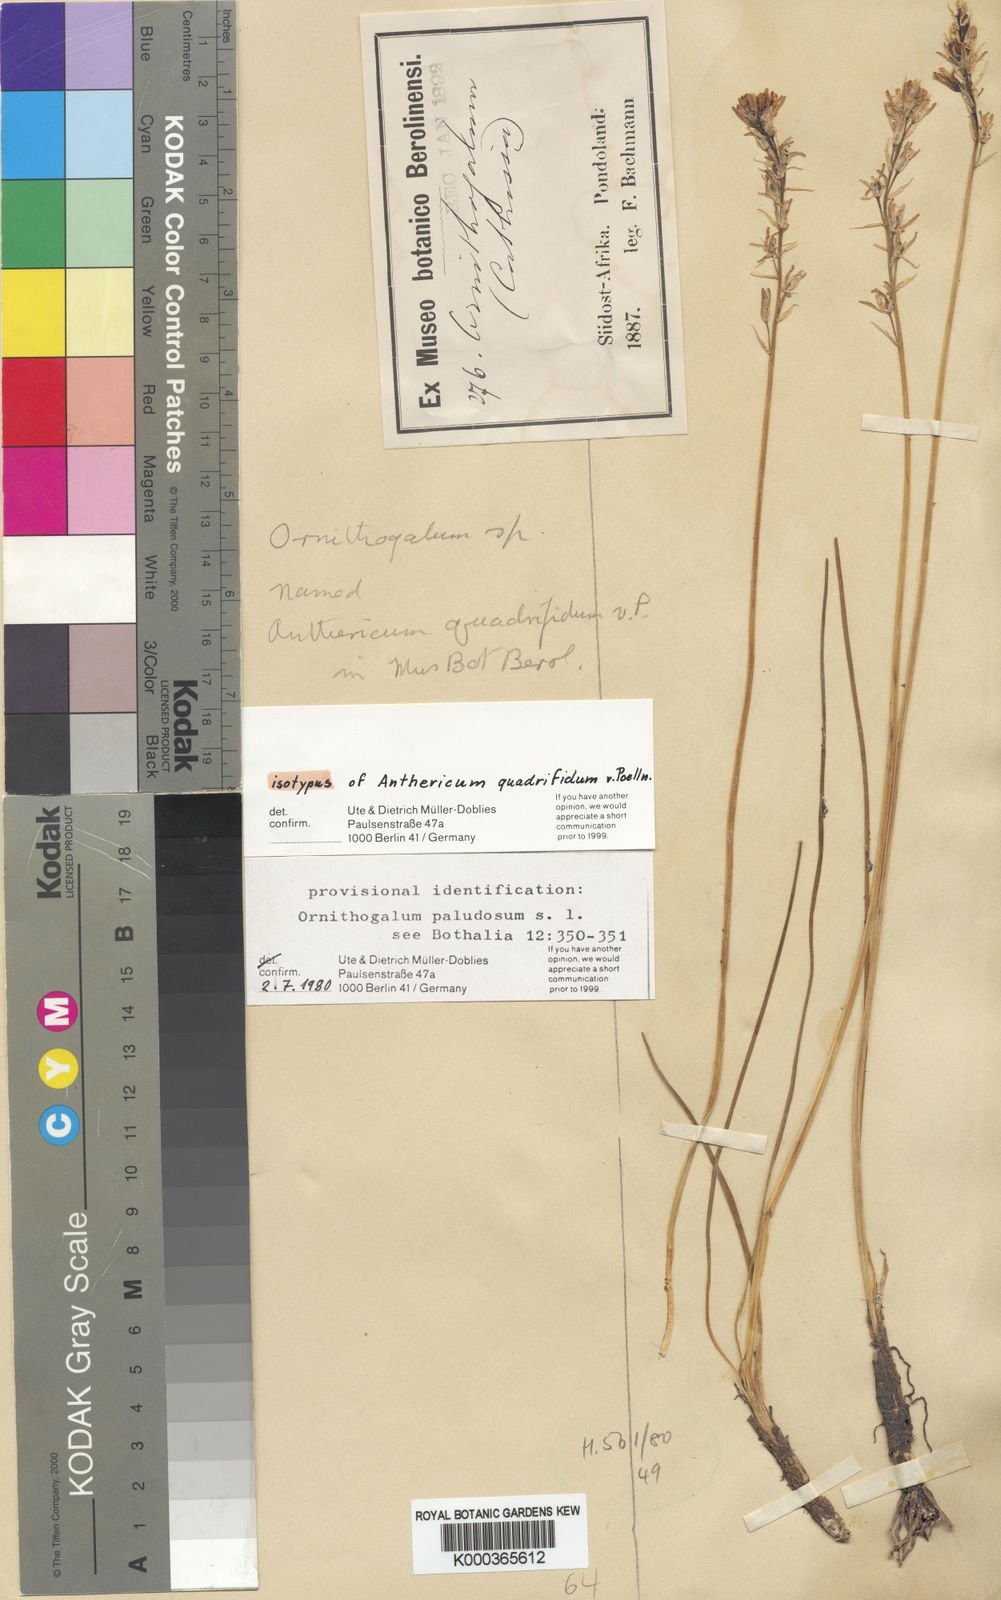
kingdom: Plantae
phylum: Tracheophyta
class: Liliopsida
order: Asparagales
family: Asparagaceae
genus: Ornithogalum
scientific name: Ornithogalum paludosum
